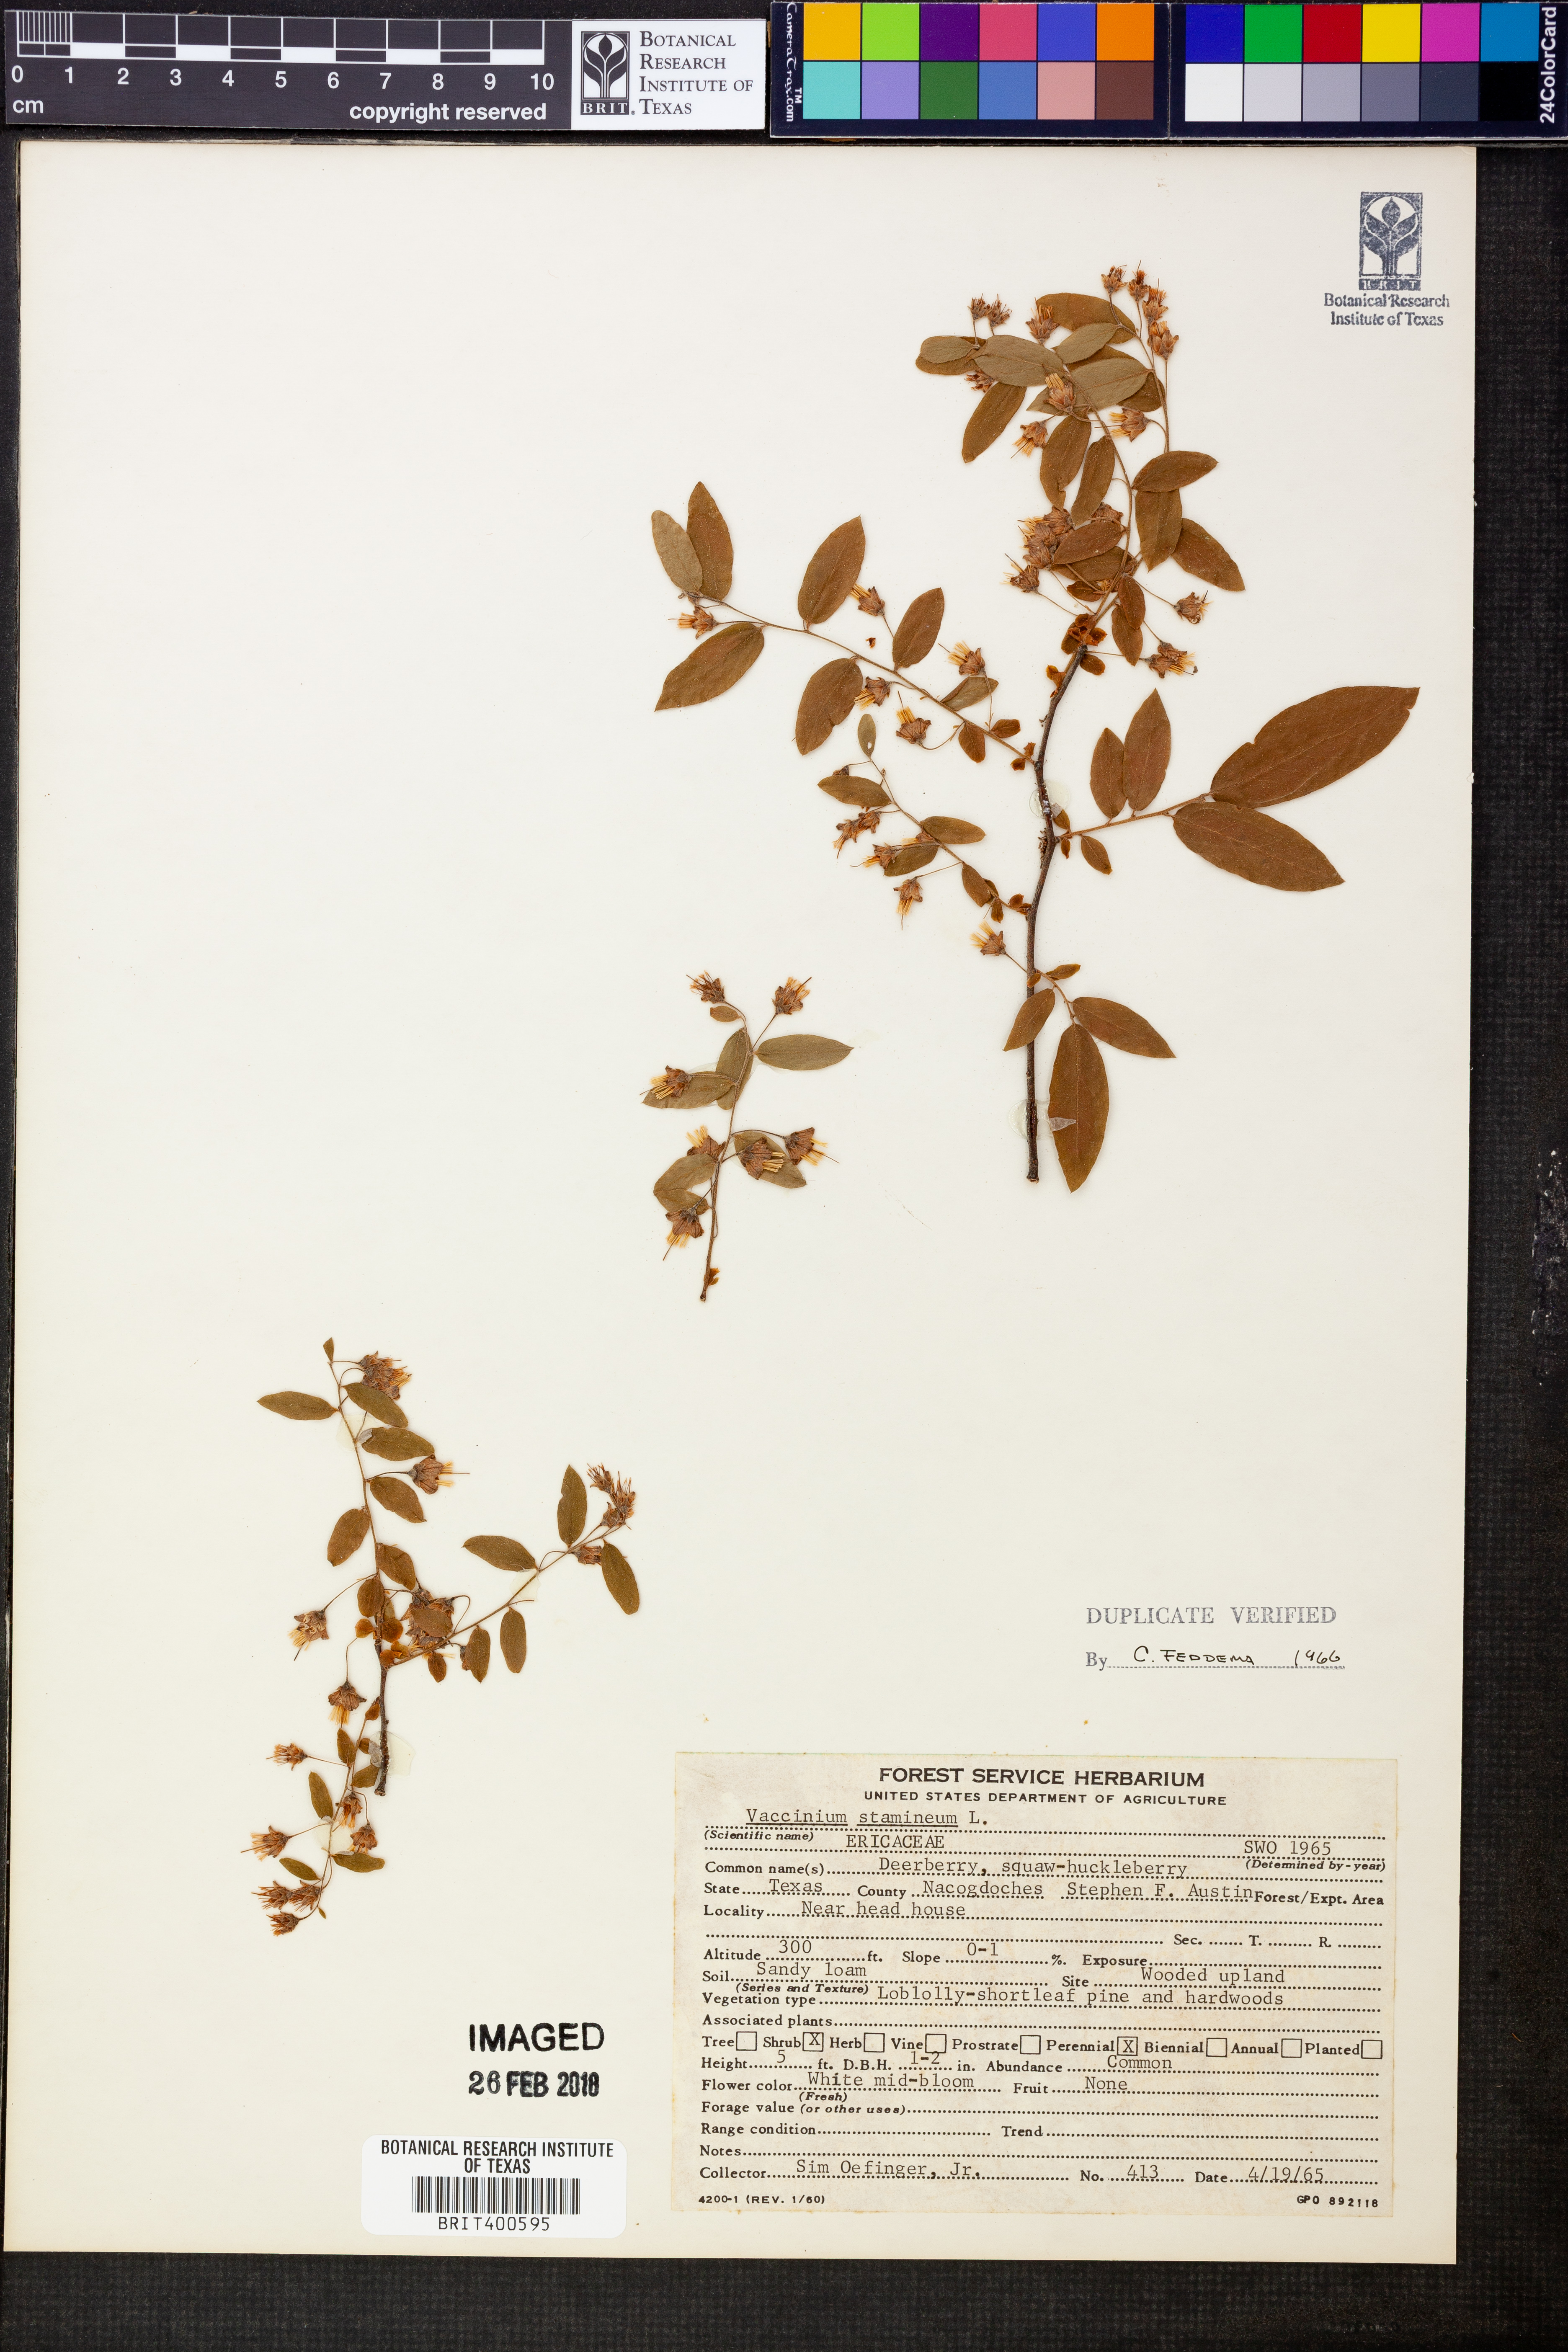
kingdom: Plantae
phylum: Tracheophyta
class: Magnoliopsida
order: Ericales
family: Ericaceae
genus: Vaccinium
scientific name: Vaccinium stamineum
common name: Deerberry
